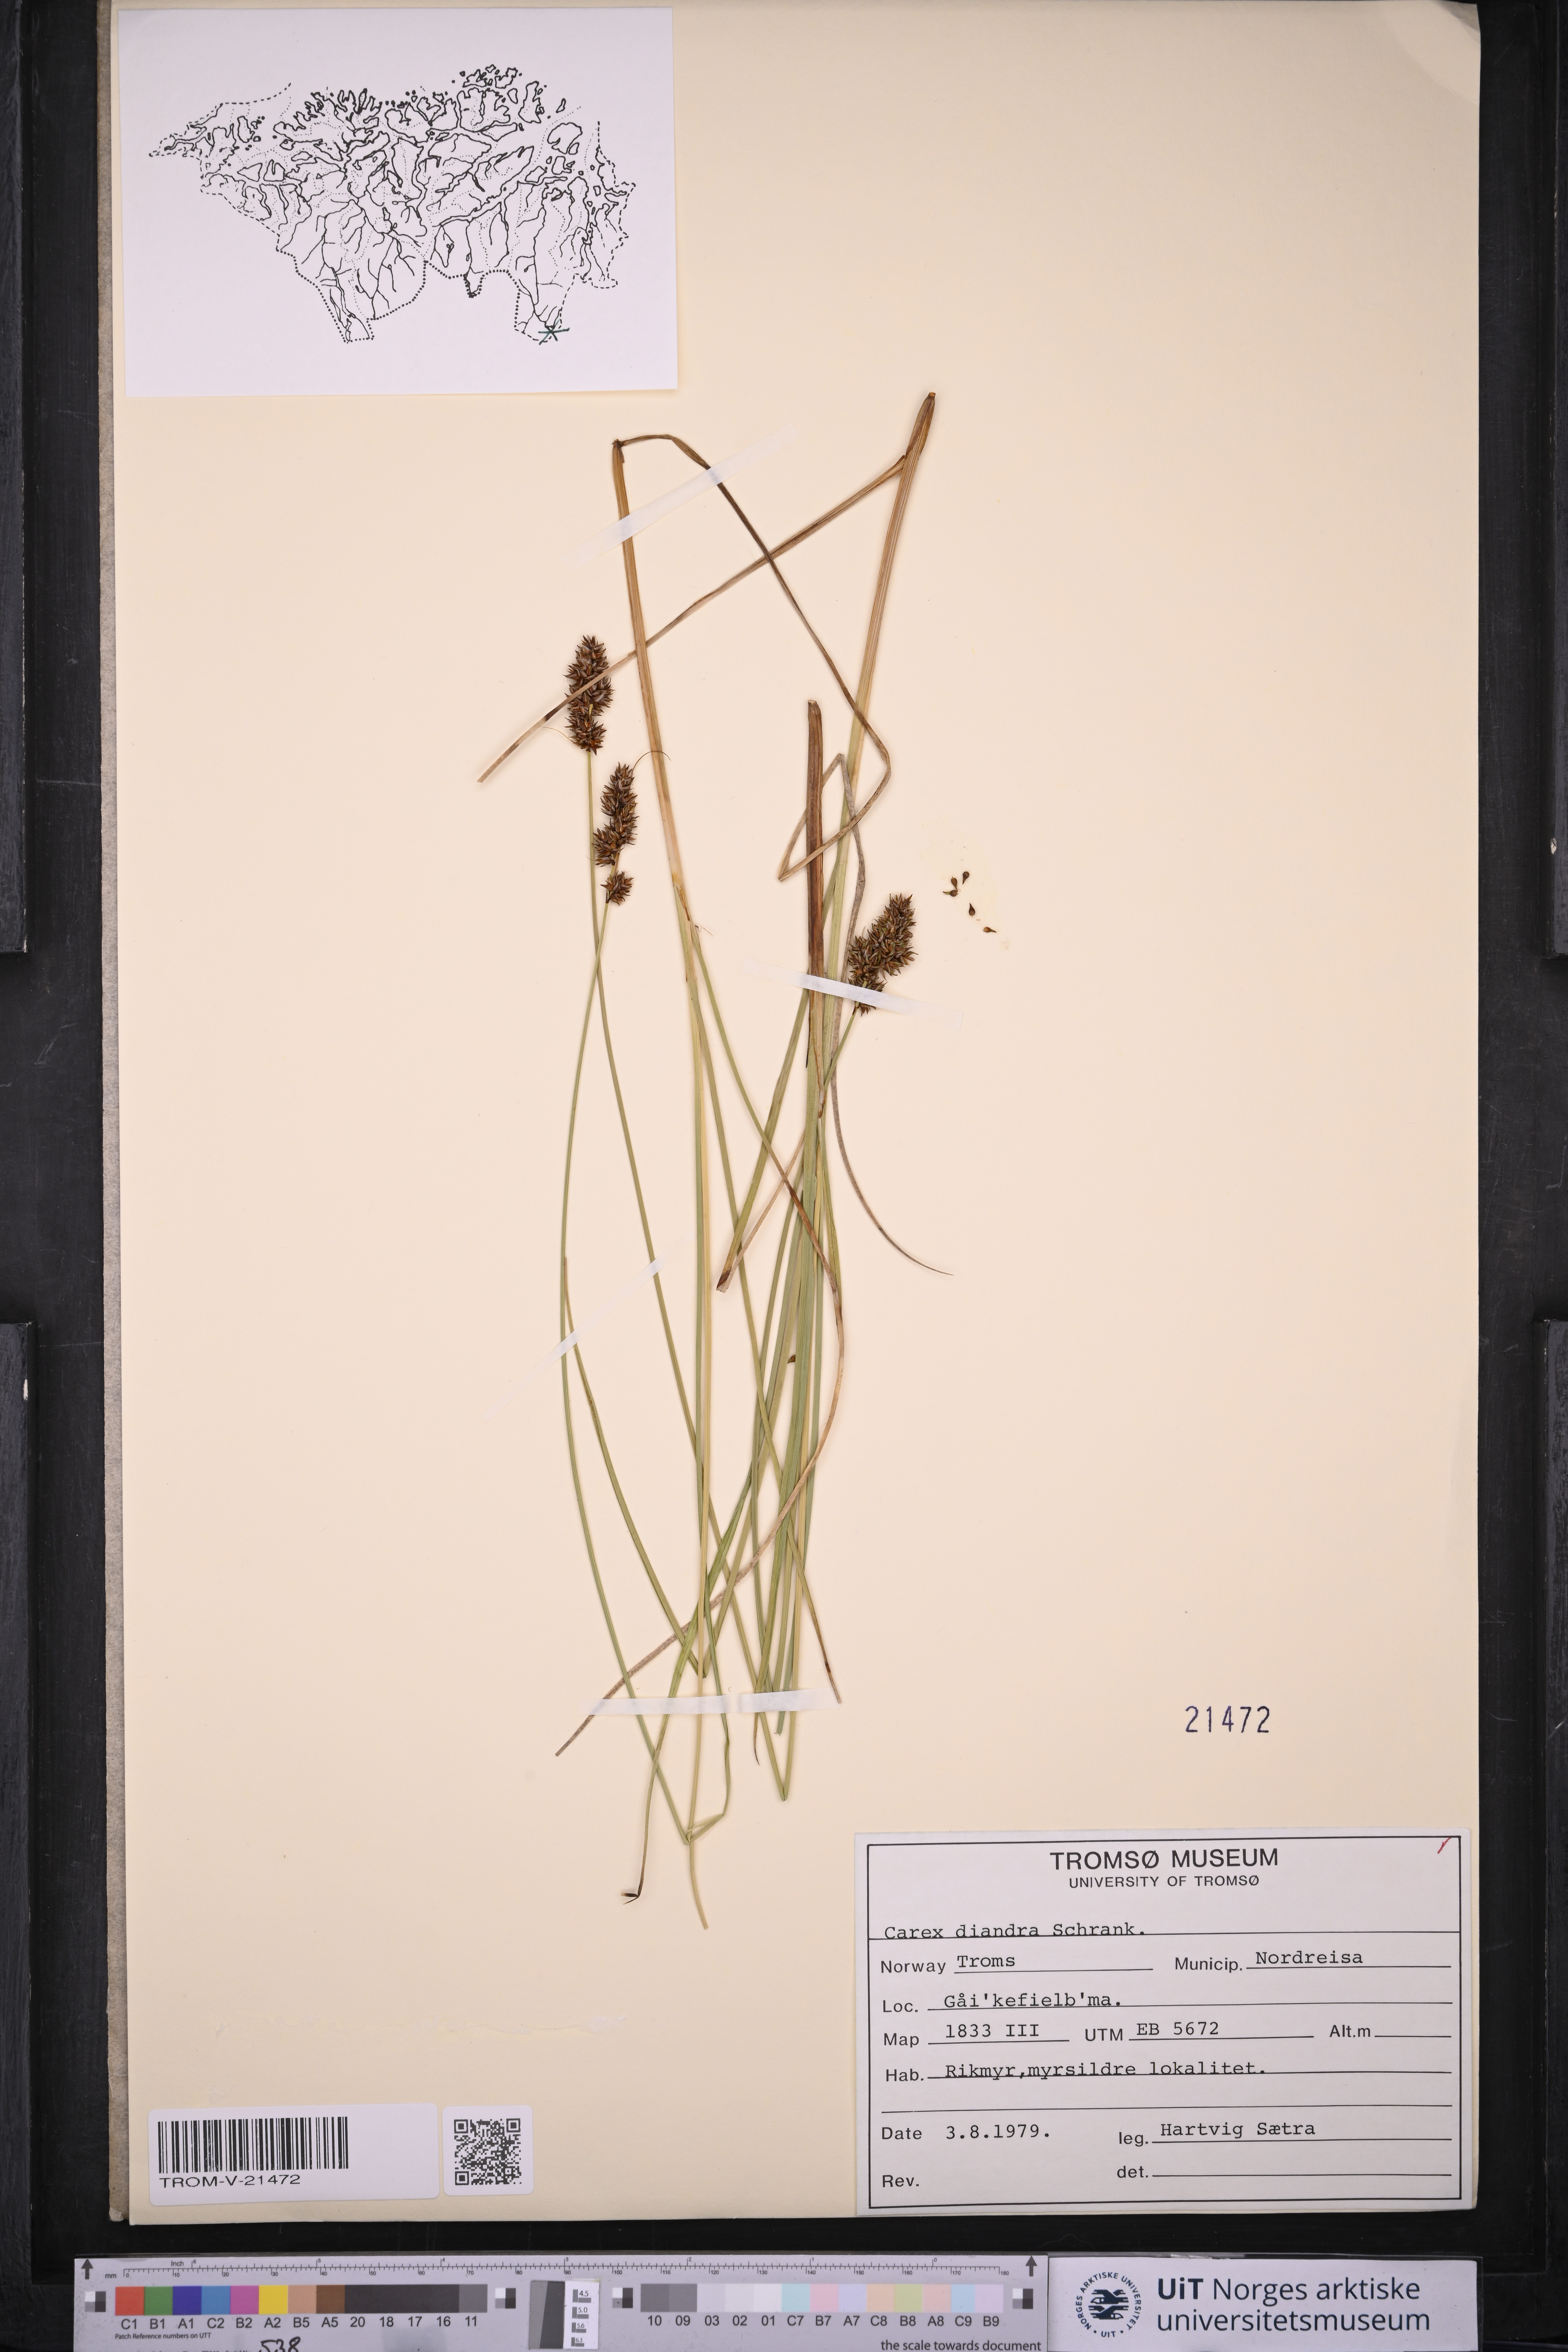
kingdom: Plantae
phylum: Tracheophyta
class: Liliopsida
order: Poales
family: Cyperaceae
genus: Carex
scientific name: Carex diandra
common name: Lesser tussock-sedge
